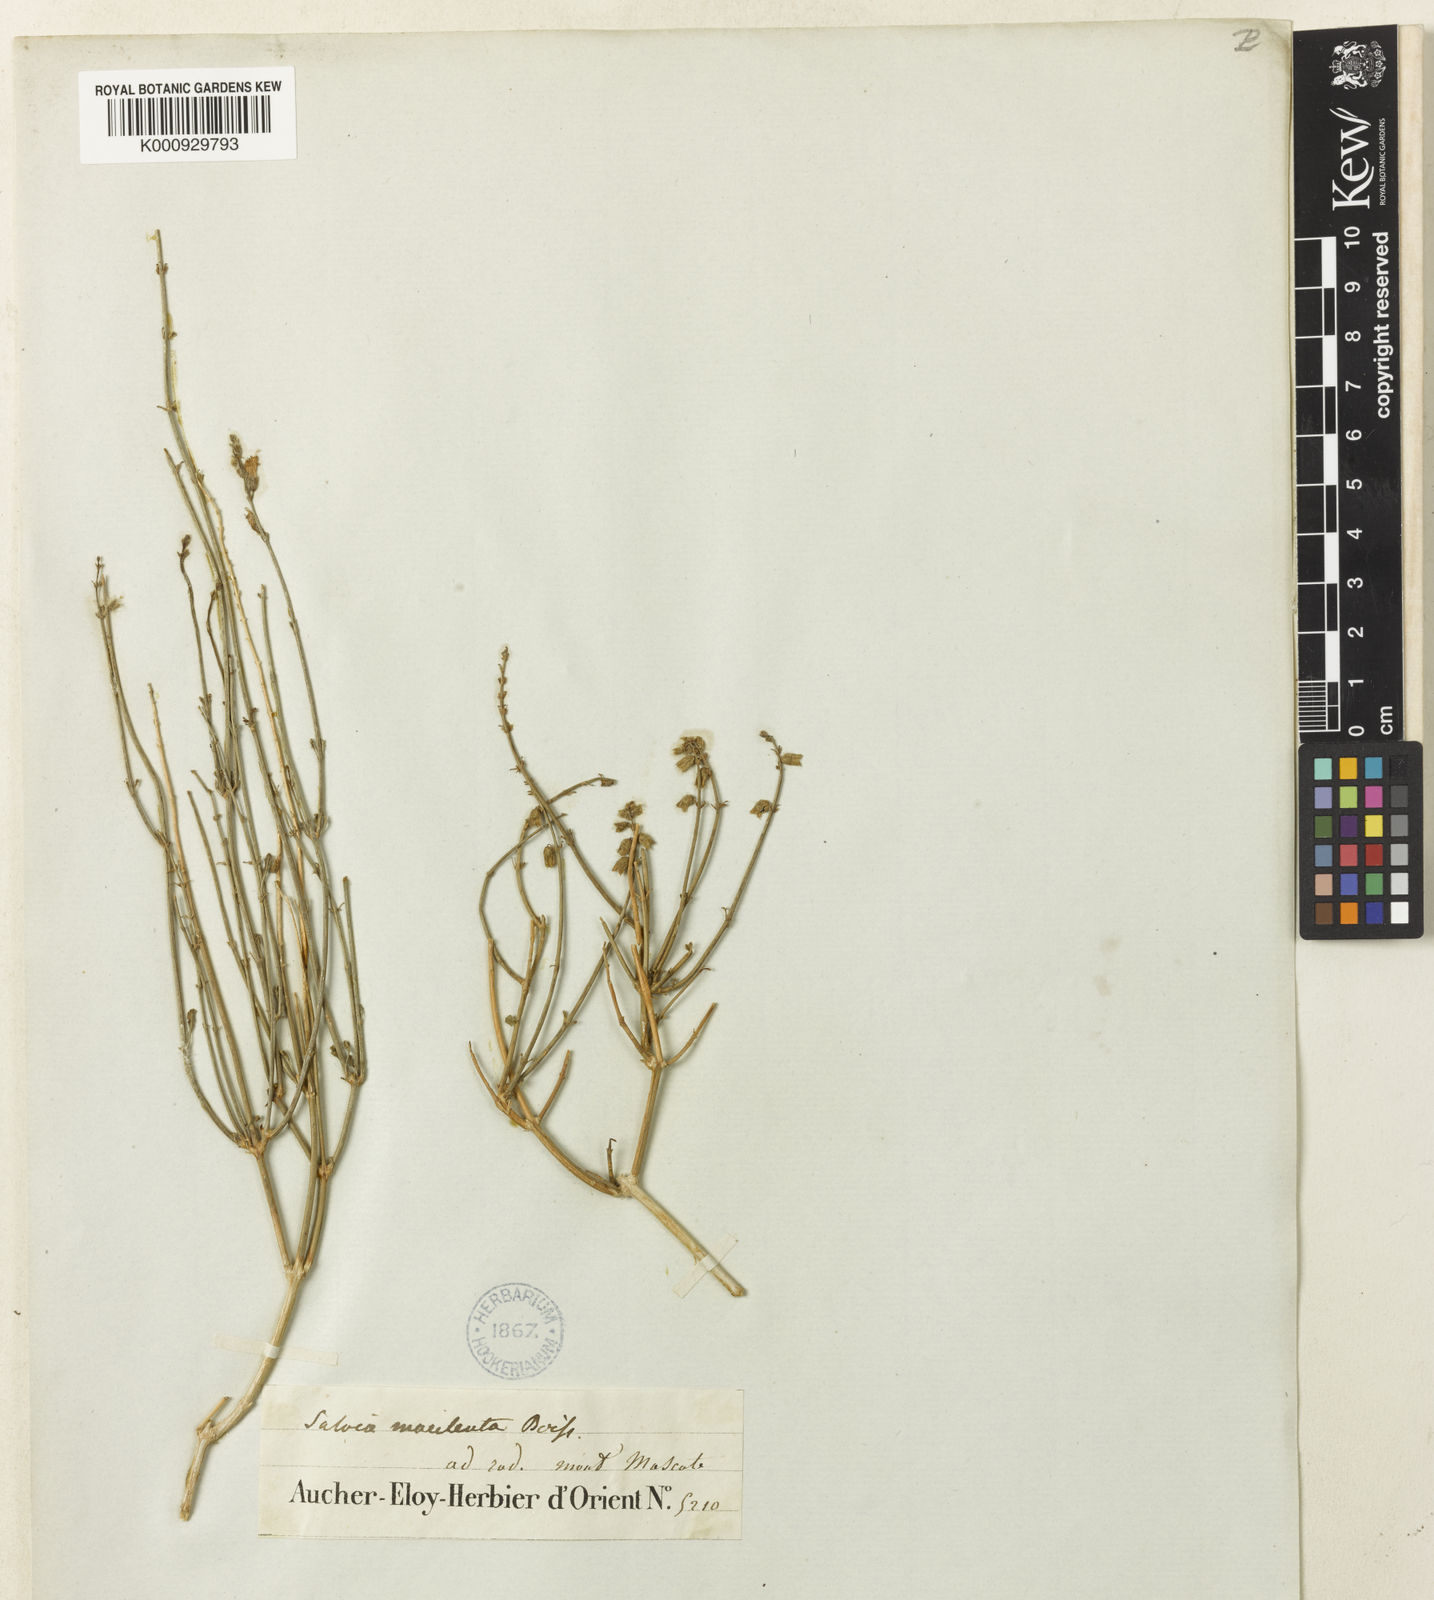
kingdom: Plantae
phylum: Tracheophyta
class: Magnoliopsida
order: Lamiales
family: Lamiaceae
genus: Salvia
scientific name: Salvia macilenta
